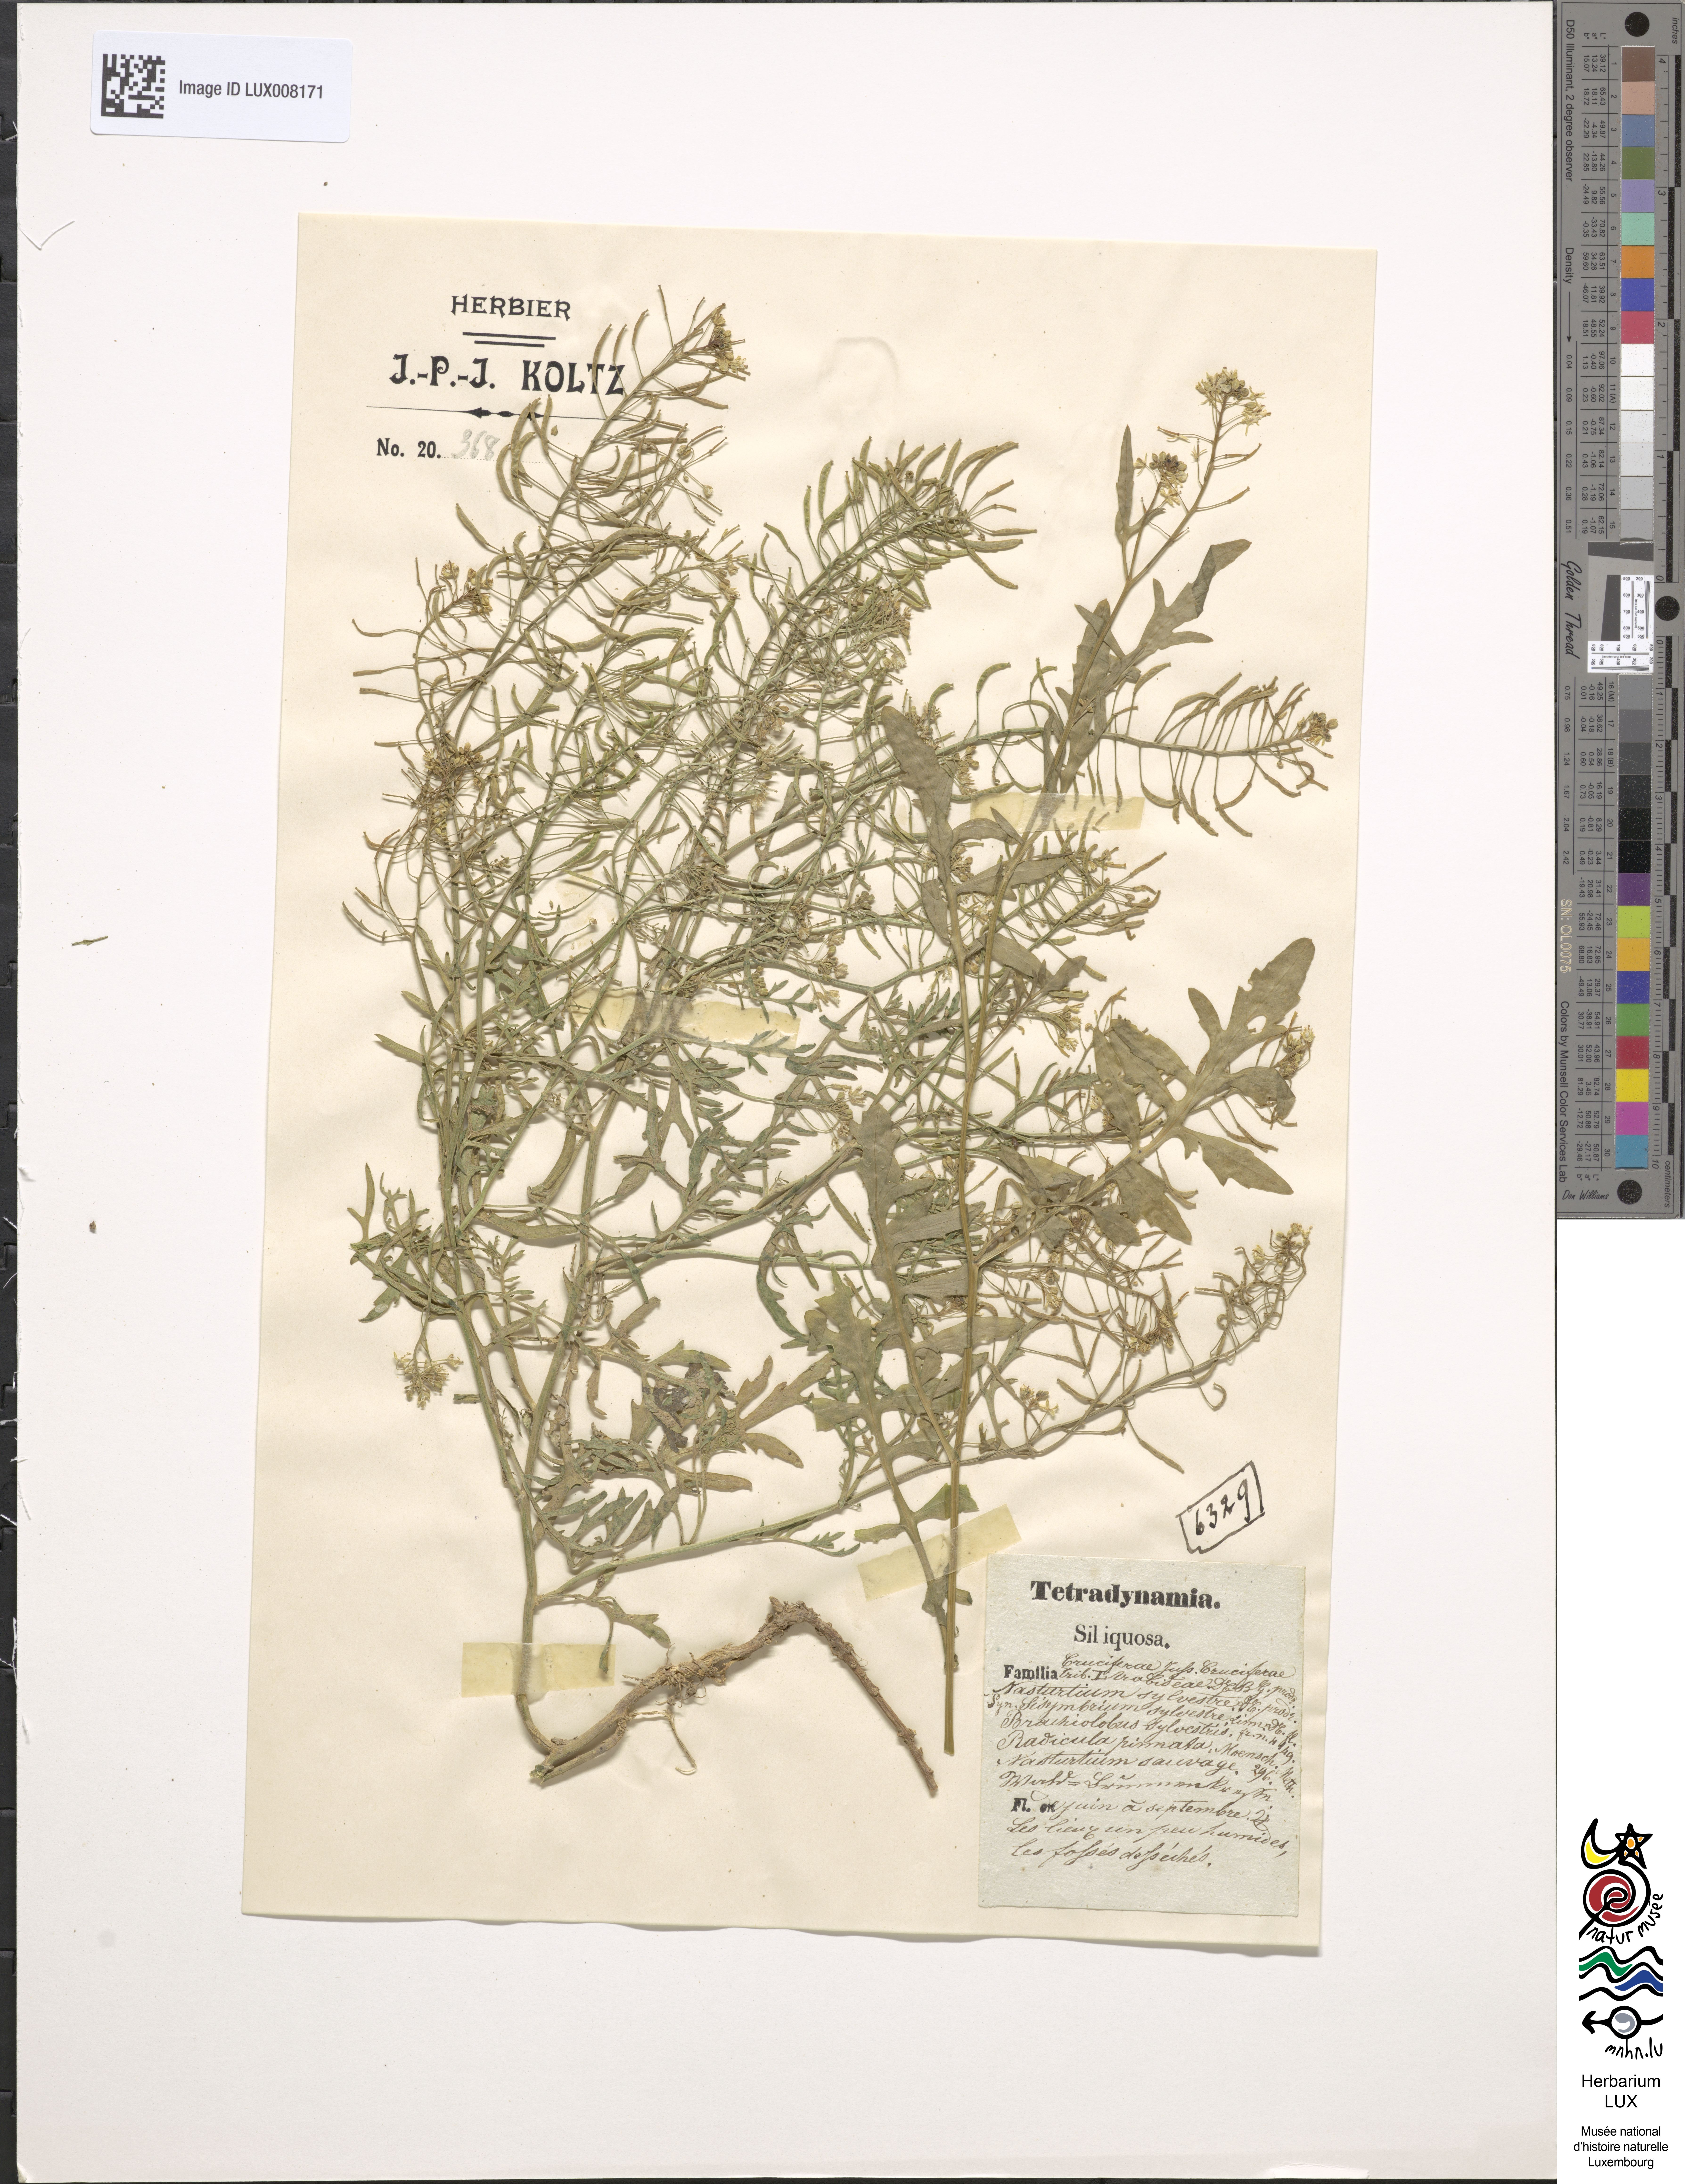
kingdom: Plantae
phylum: Tracheophyta
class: Magnoliopsida
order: Brassicales
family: Brassicaceae
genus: Rorippa
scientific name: Rorippa sylvestris
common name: Creeping yellowcress
